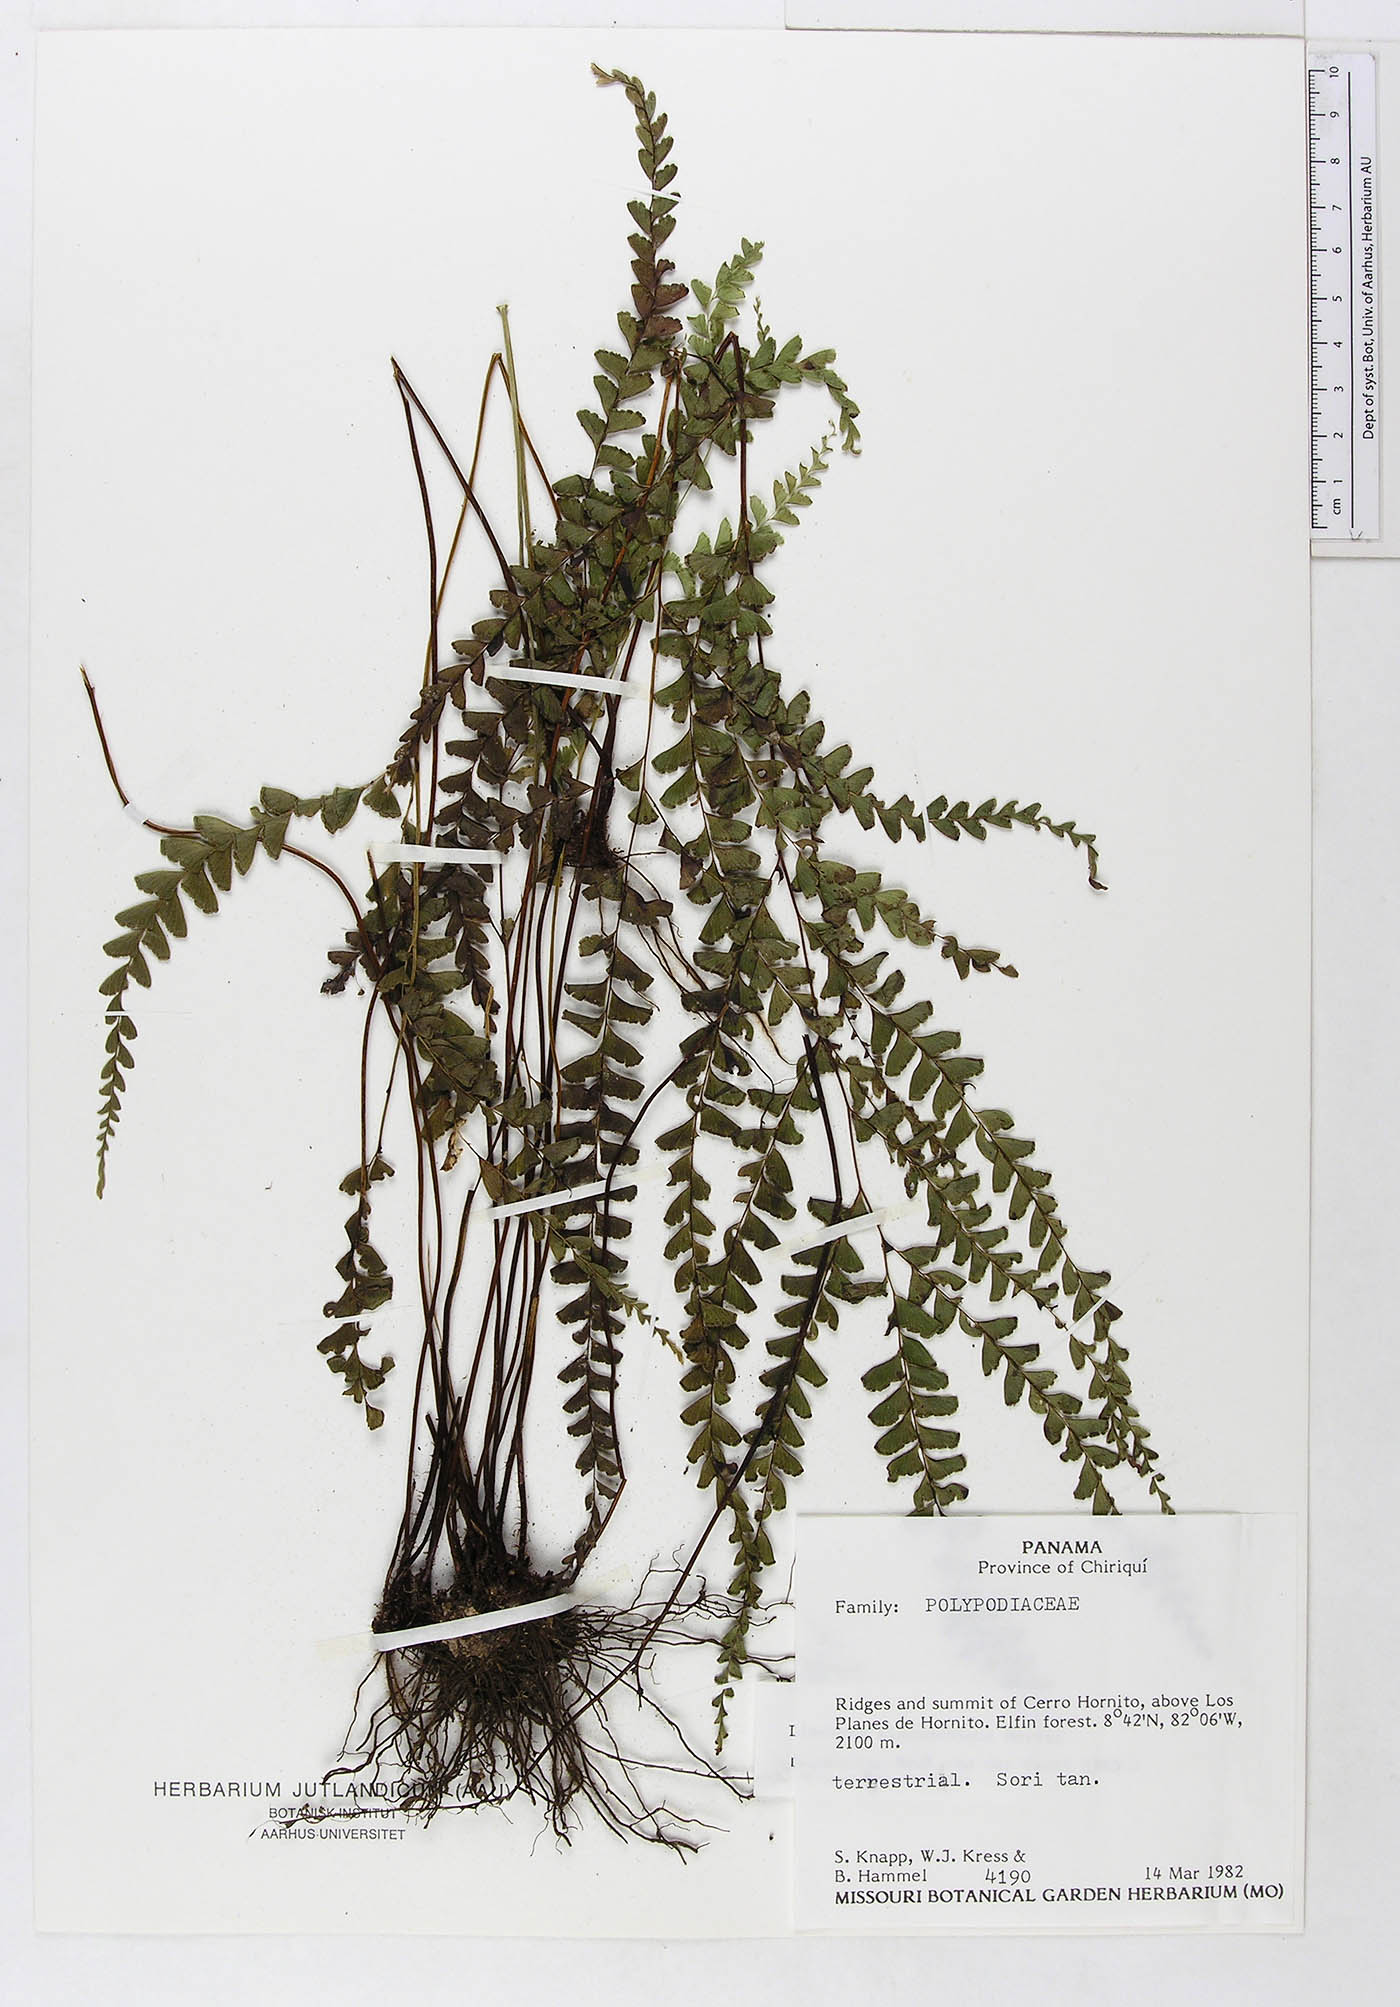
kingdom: Plantae
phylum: Tracheophyta
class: Polypodiopsida
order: Polypodiales
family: Dennstaedtiaceae
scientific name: Dennstaedtiaceae
